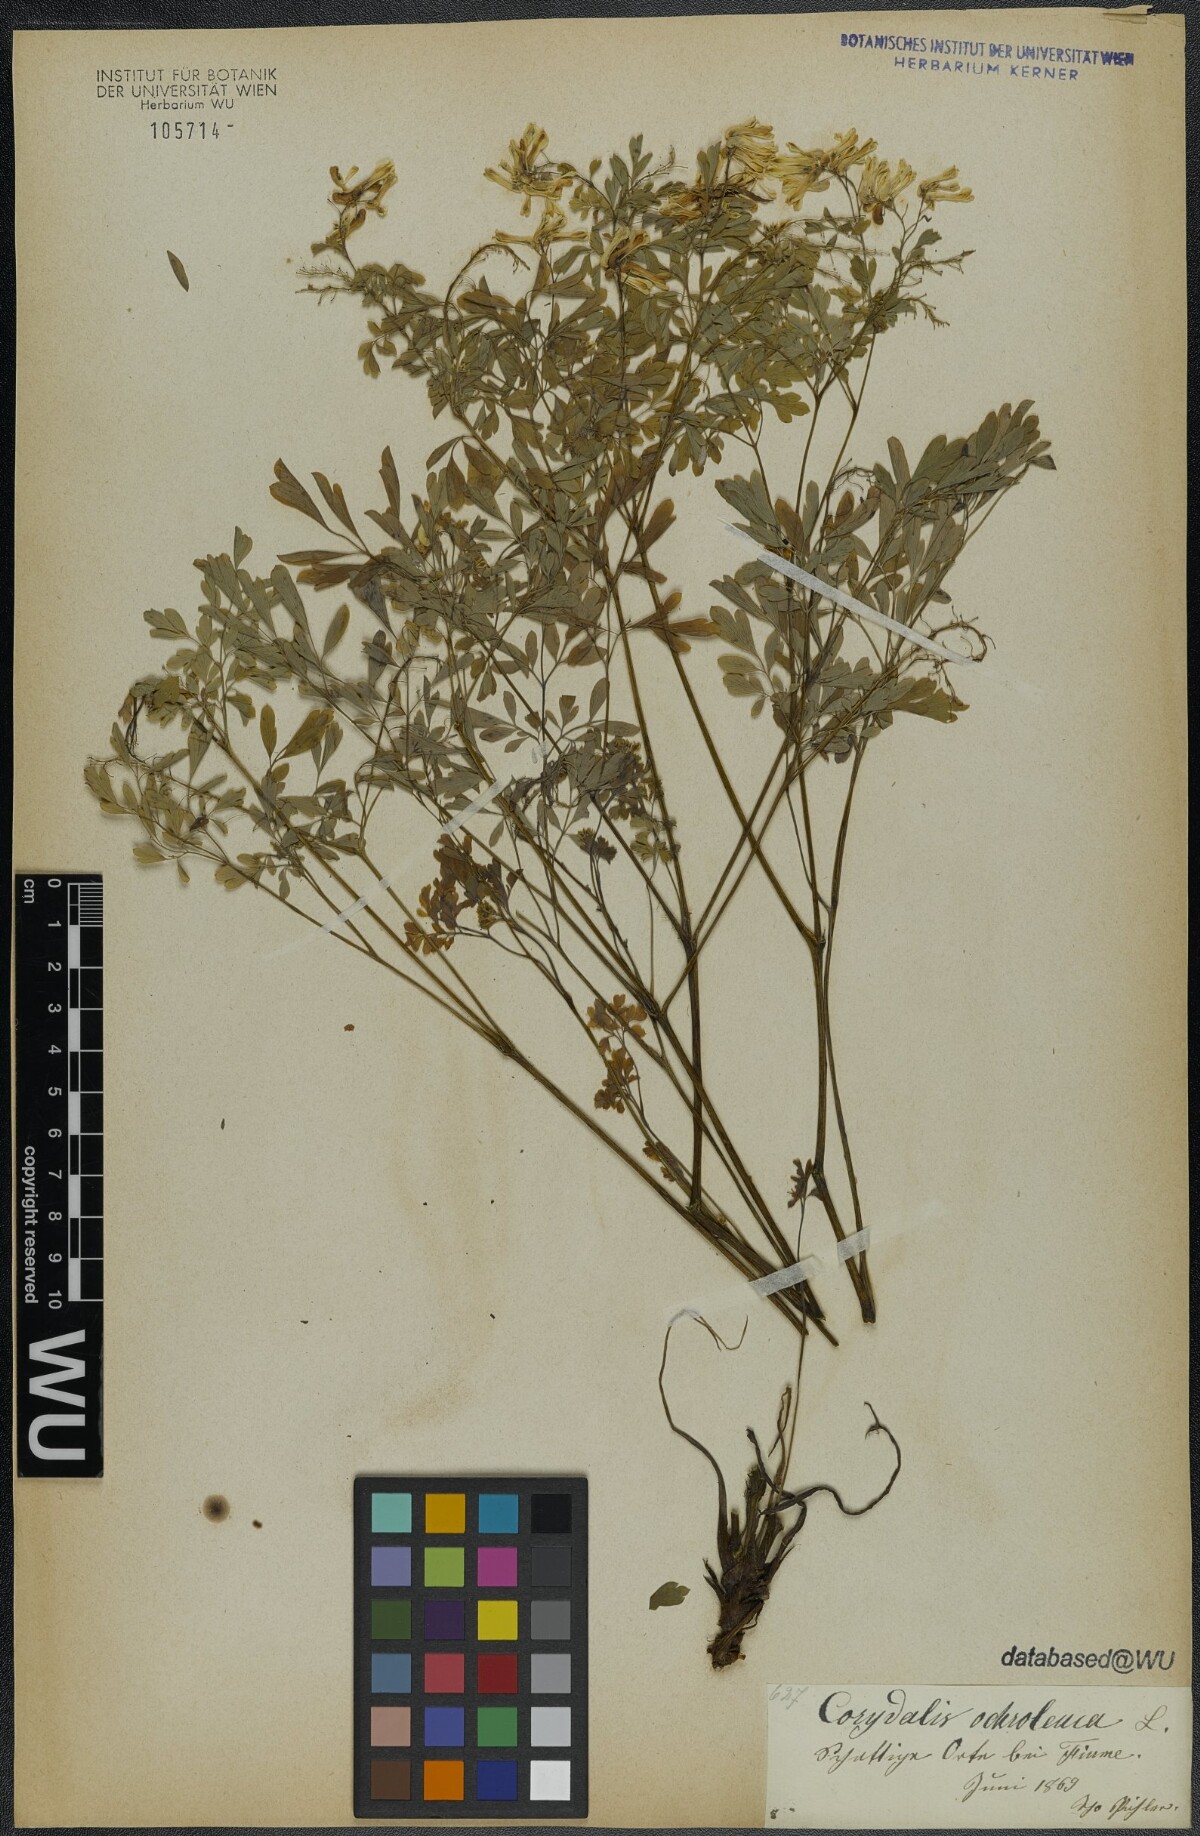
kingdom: Plantae
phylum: Tracheophyta
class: Magnoliopsida
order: Ranunculales
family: Papaveraceae
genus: Pseudofumaria
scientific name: Pseudofumaria alba
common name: Pale corydalis
